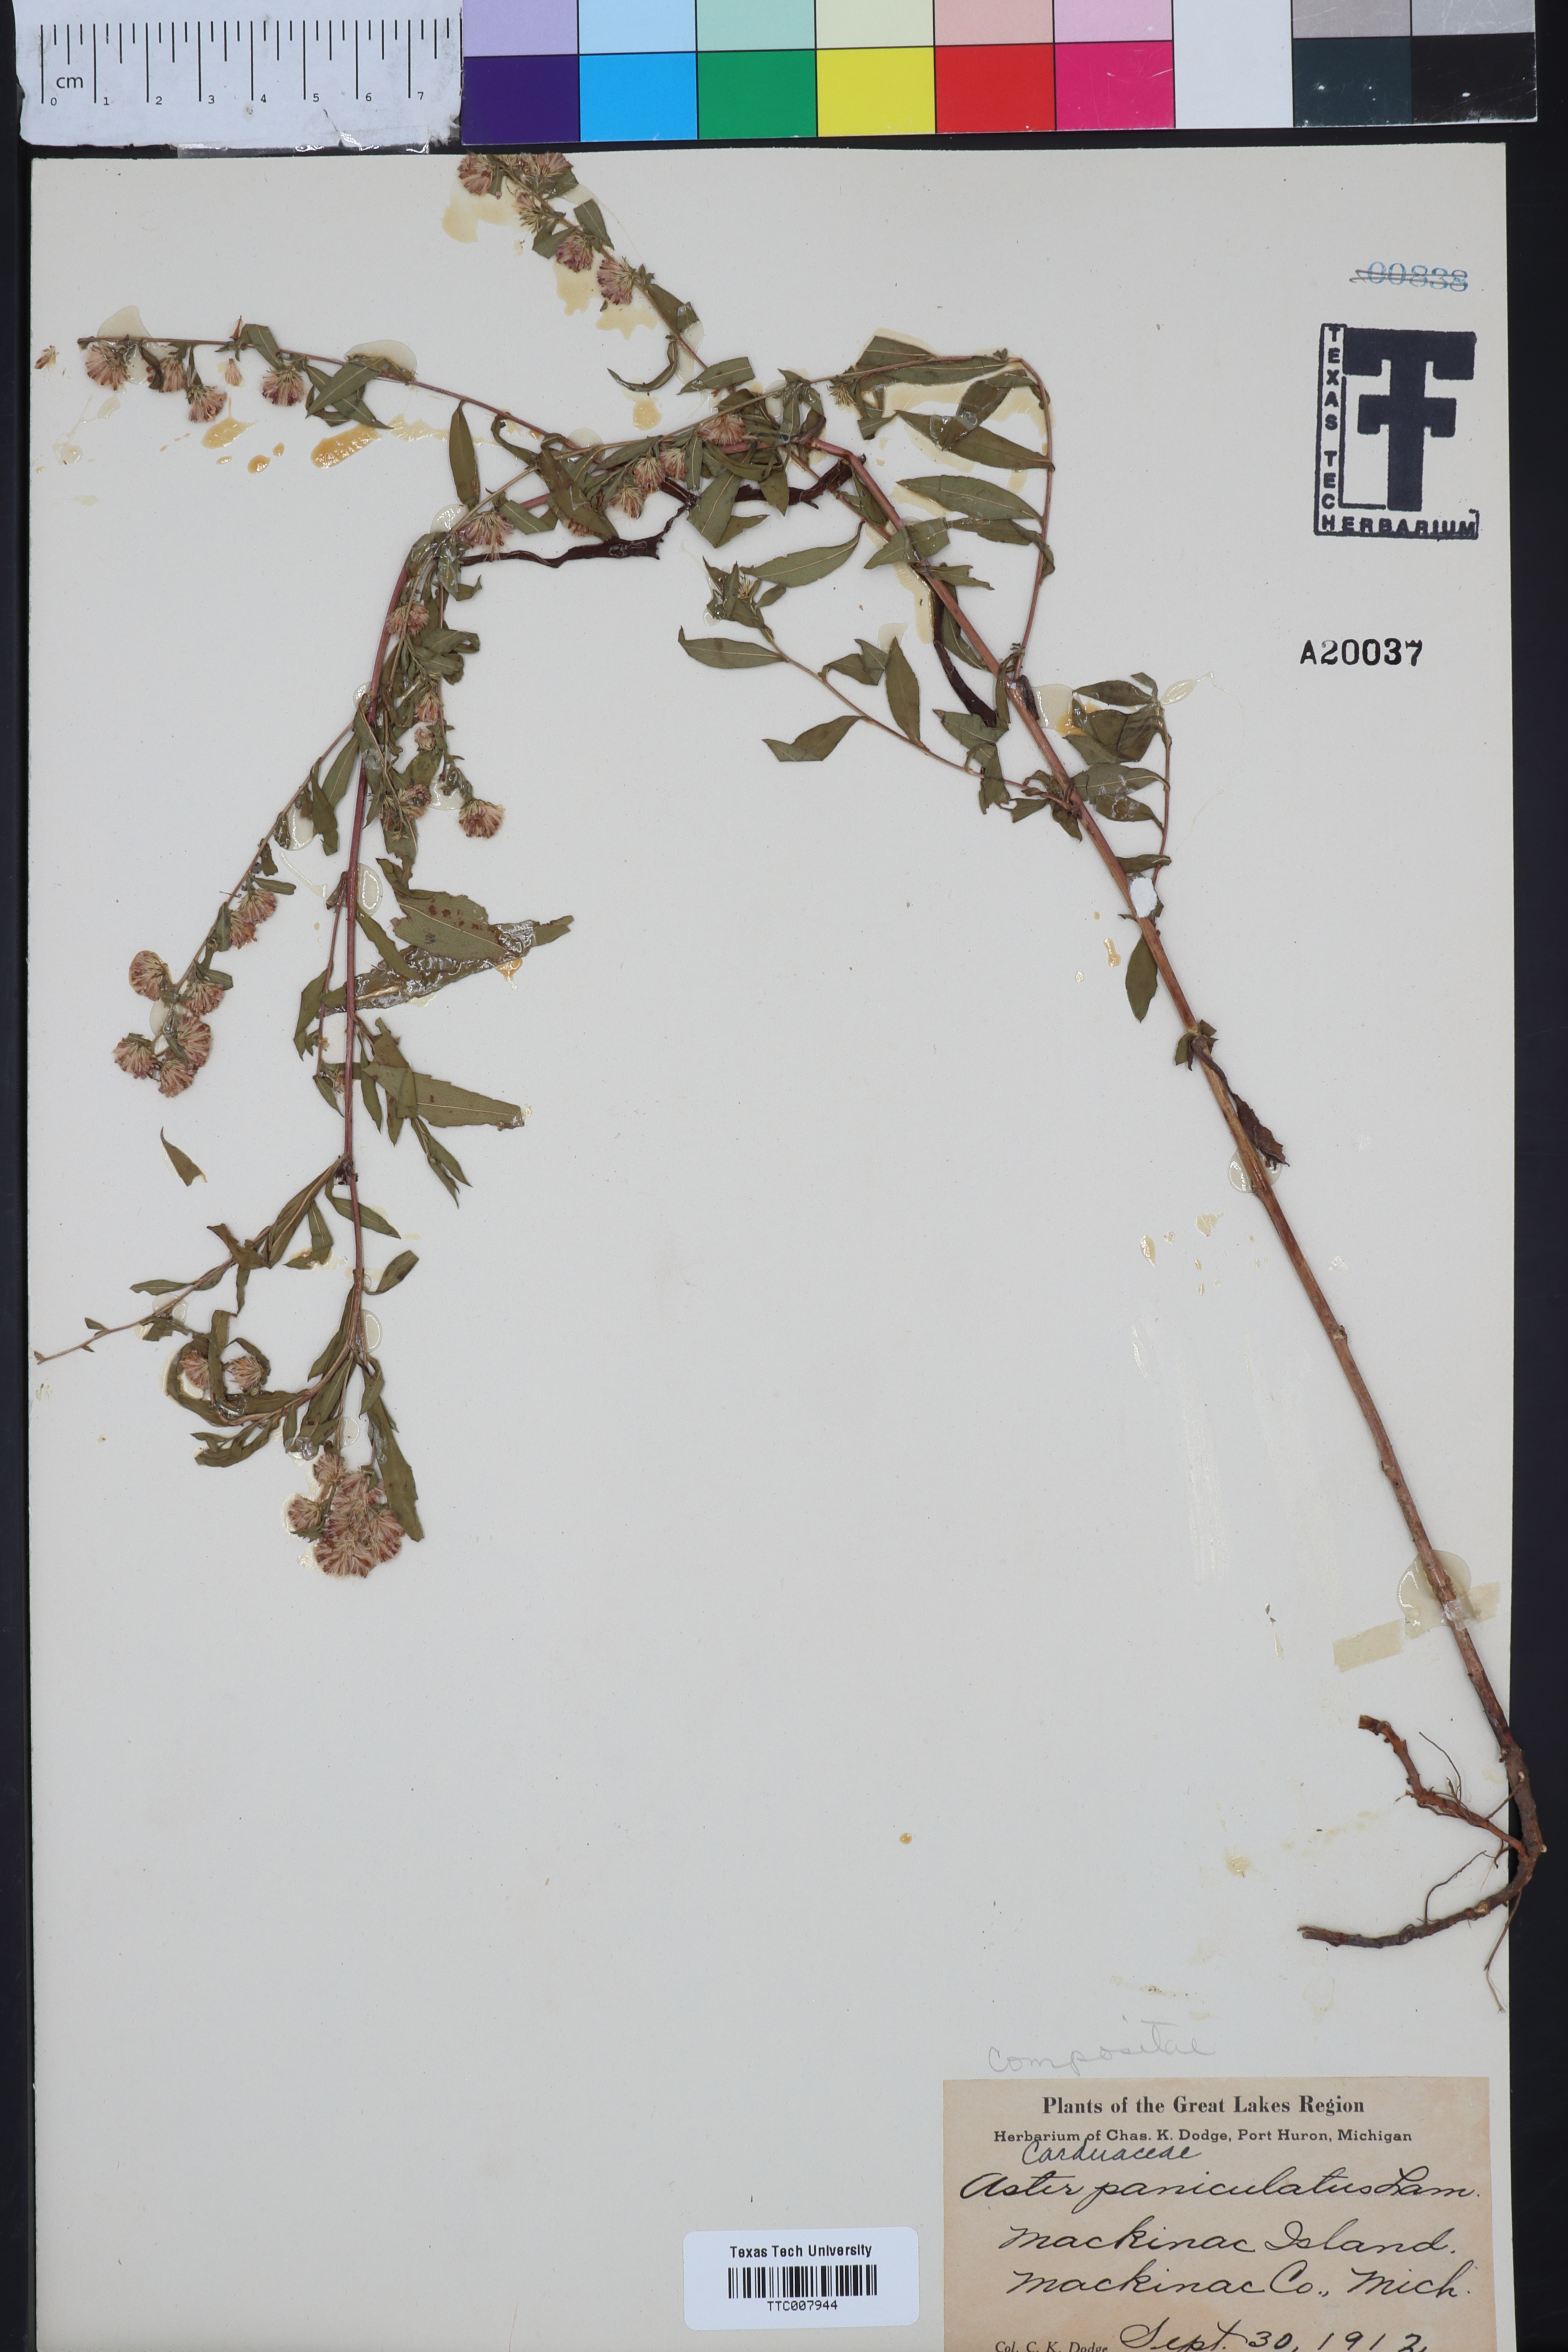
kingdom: Plantae
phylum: Tracheophyta
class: Magnoliopsida
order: Asterales
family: Asteraceae
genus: Symphyotrichum
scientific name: Symphyotrichum lanceolatum
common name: Panicled aster
